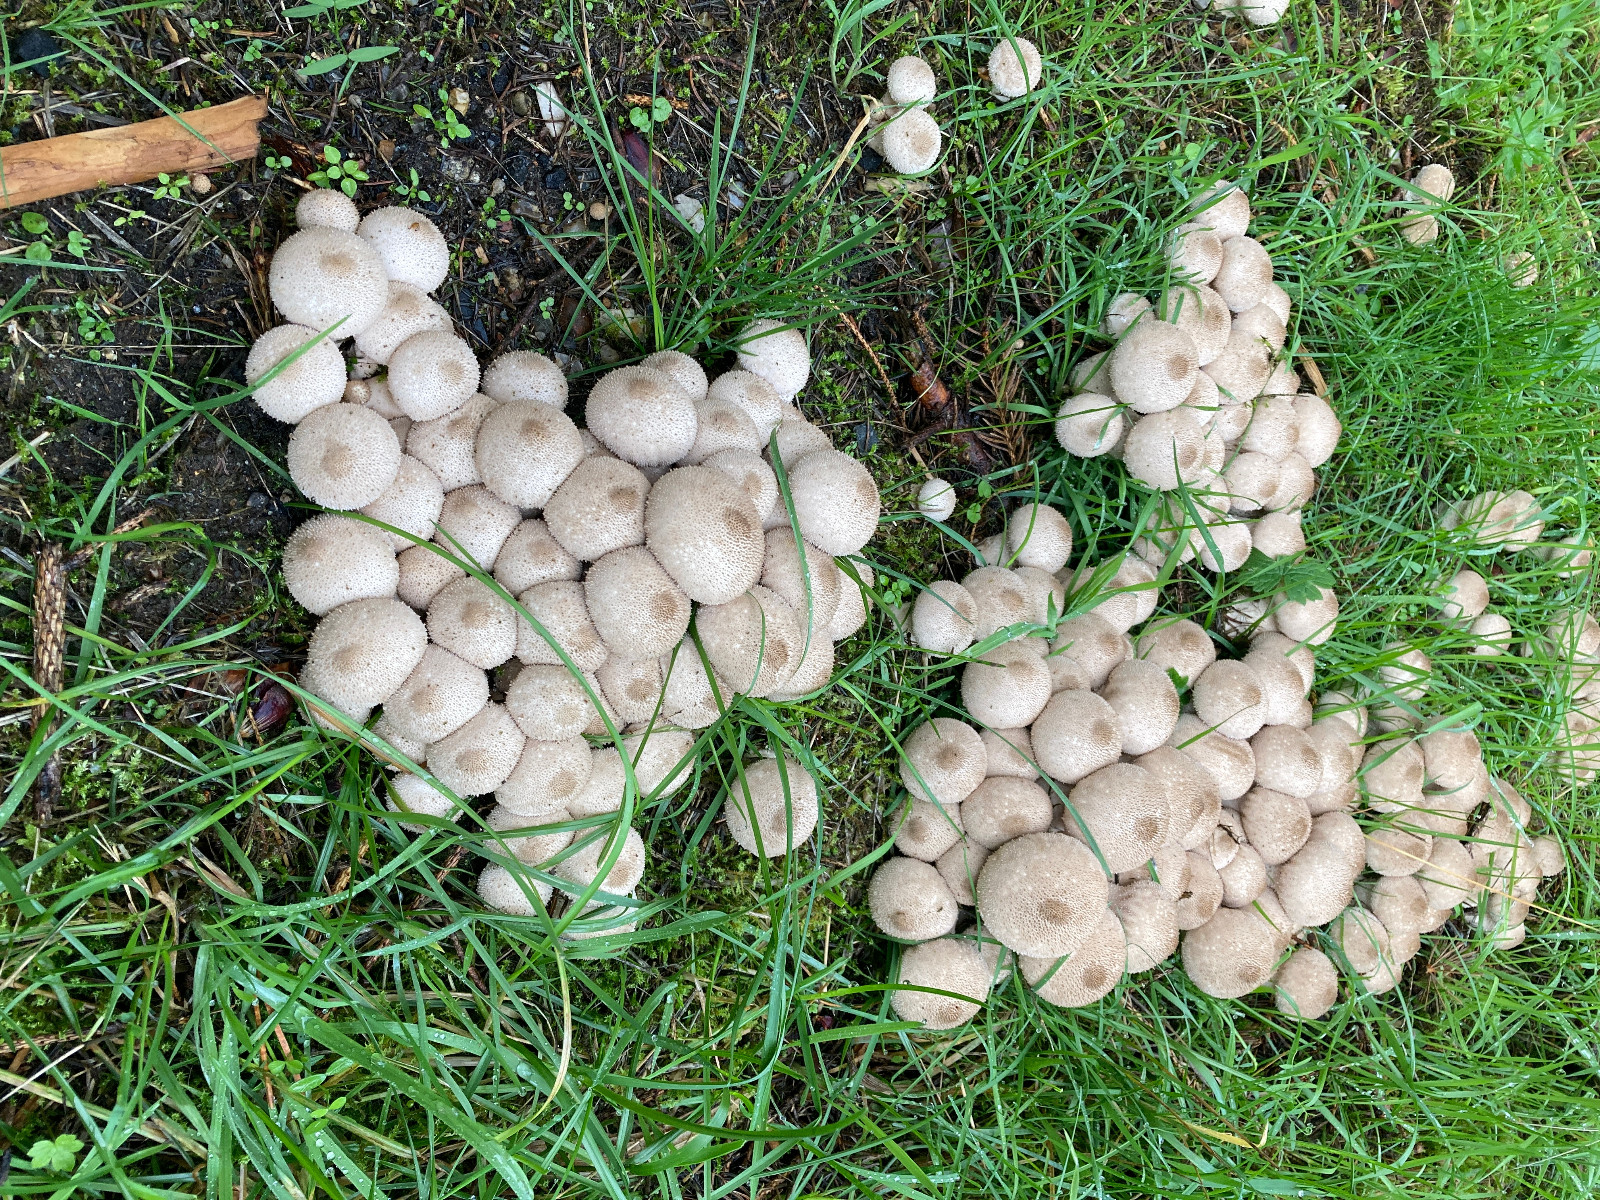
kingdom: Fungi
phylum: Basidiomycota
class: Agaricomycetes
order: Agaricales
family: Lycoperdaceae
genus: Lycoperdon
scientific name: Lycoperdon perlatum
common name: krystal-støvbold
